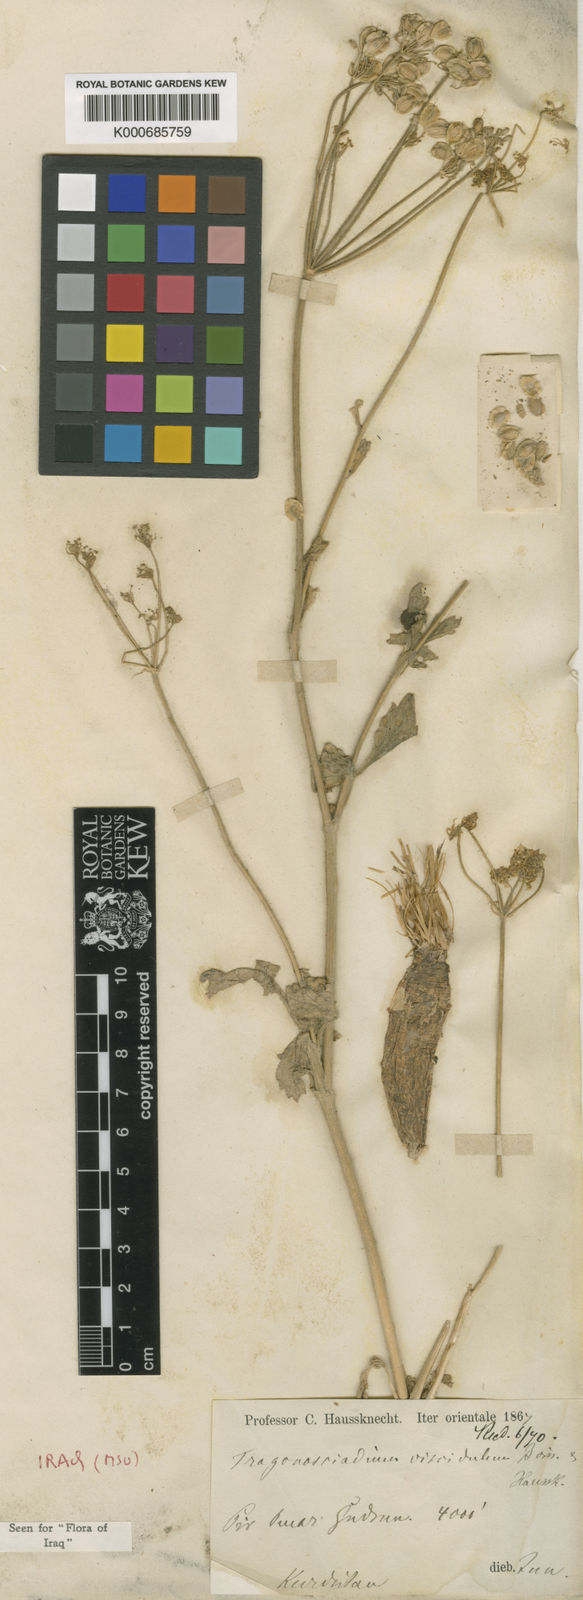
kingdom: Plantae
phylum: Tracheophyta
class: Magnoliopsida
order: Apiales
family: Apiaceae
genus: Trigonosciadium
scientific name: Trigonosciadium viscidulum
